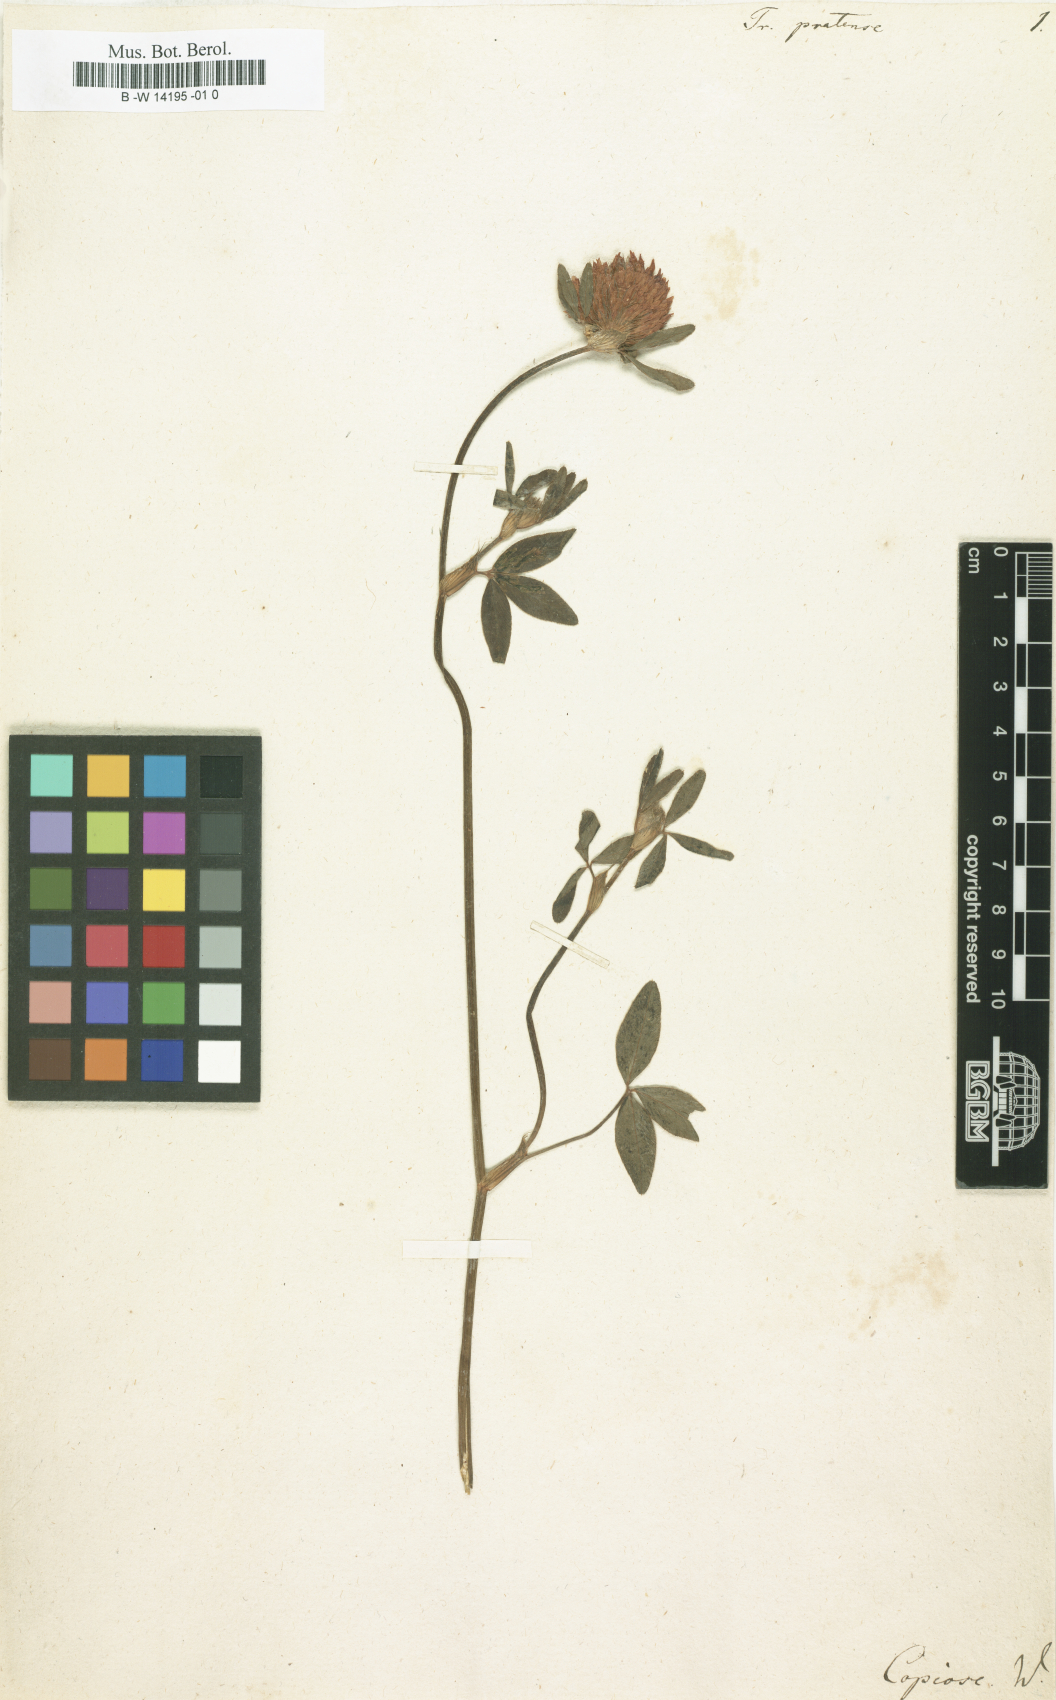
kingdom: Plantae
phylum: Tracheophyta
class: Magnoliopsida
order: Fabales
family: Fabaceae
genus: Trifolium
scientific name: Trifolium pratense
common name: Red clover
